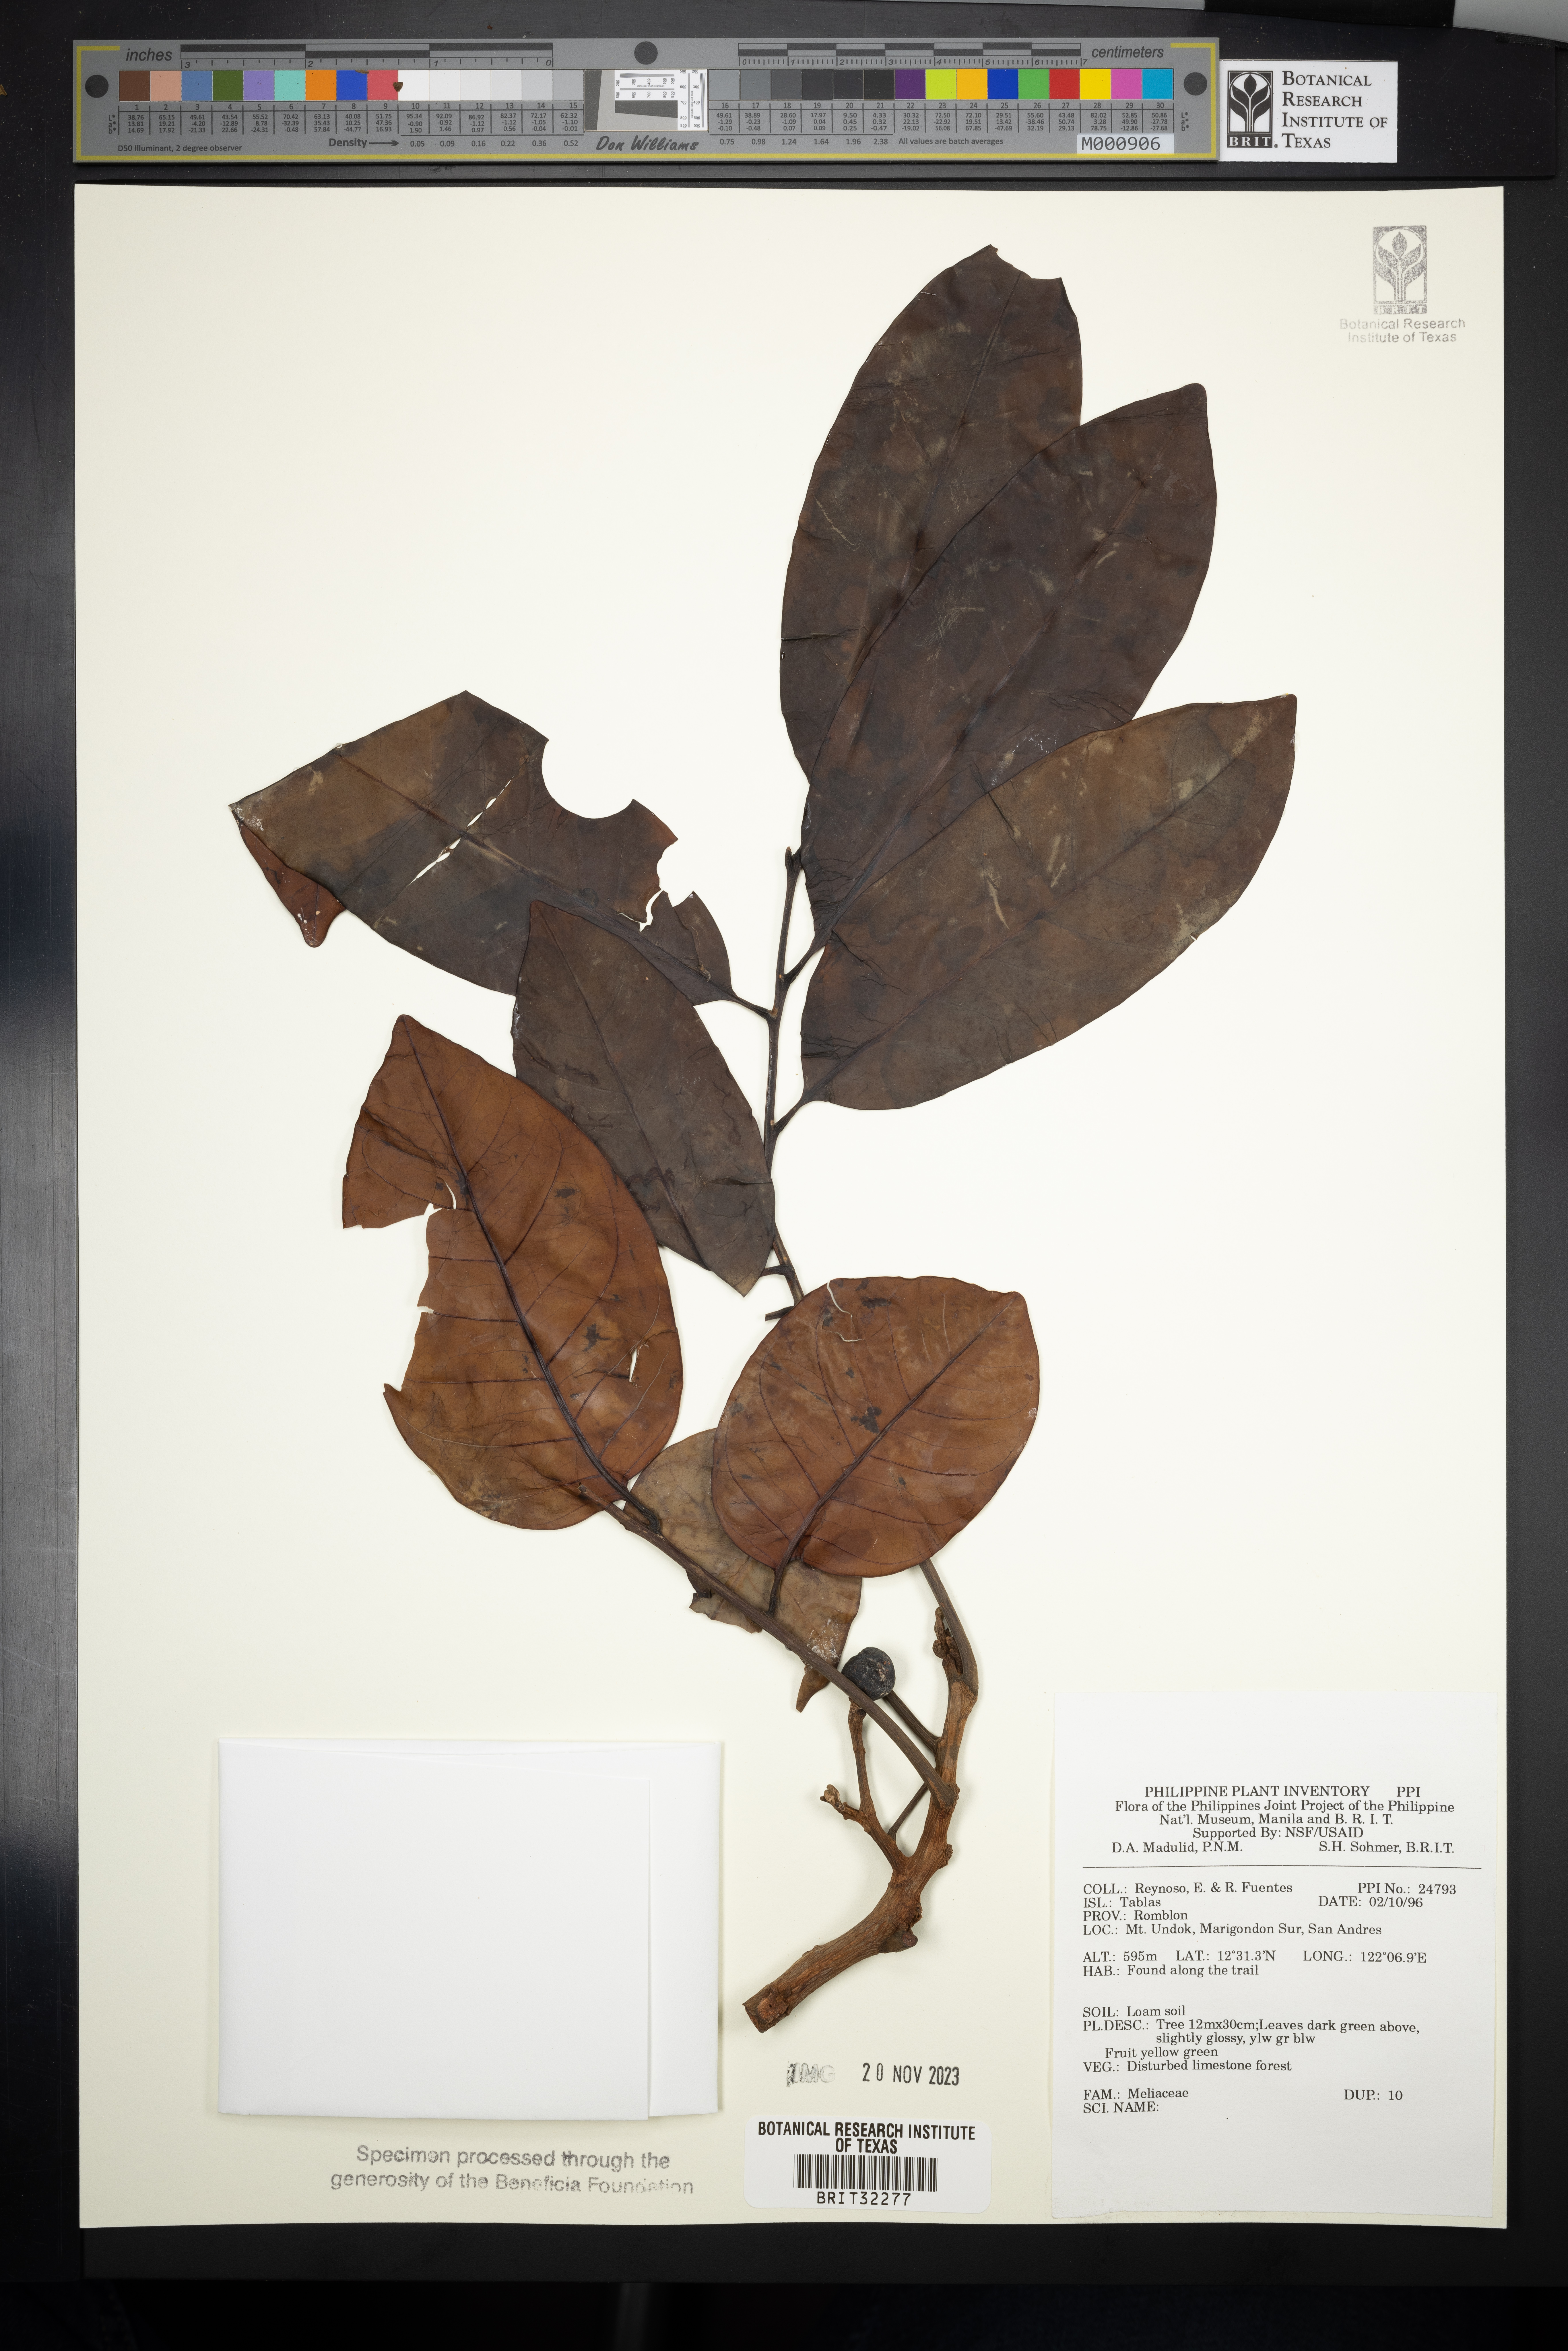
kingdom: Plantae
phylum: Tracheophyta
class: Magnoliopsida
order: Sapindales
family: Meliaceae
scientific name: Meliaceae
